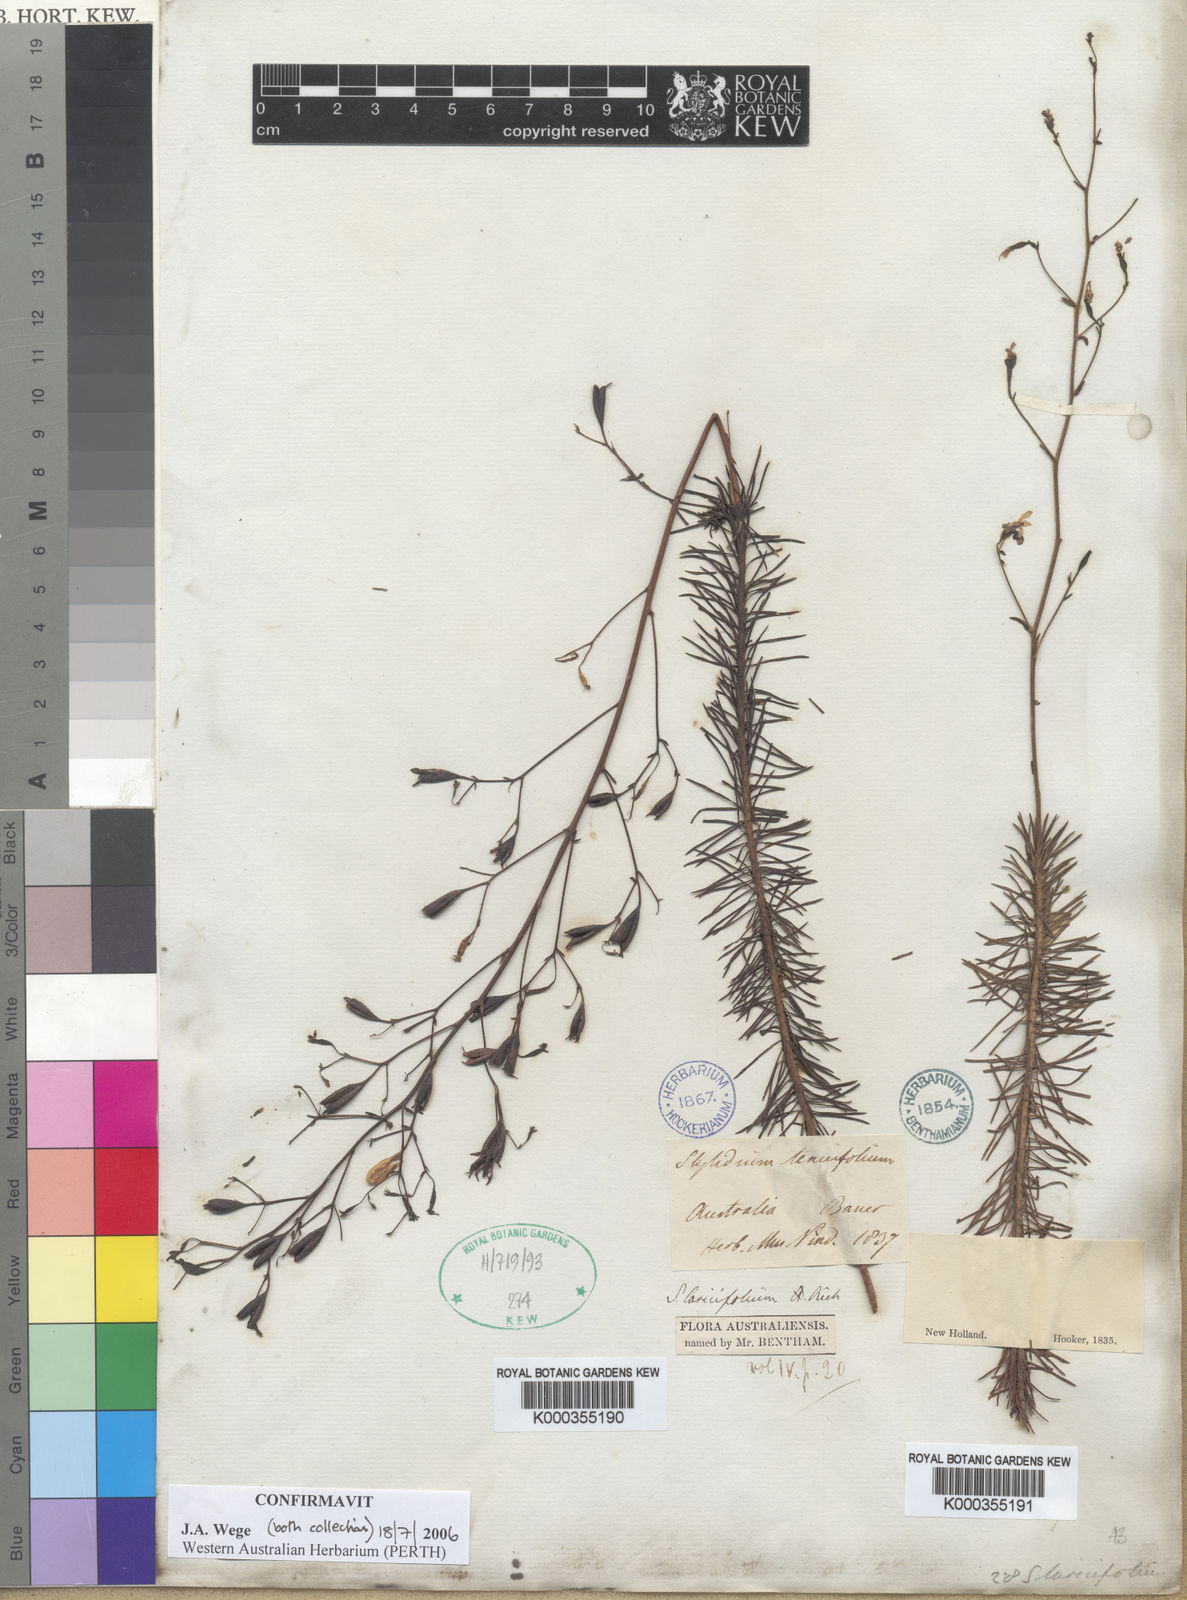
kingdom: Plantae
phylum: Tracheophyta
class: Magnoliopsida
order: Asterales
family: Stylidiaceae
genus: Stylidium
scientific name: Stylidium laricifolium
